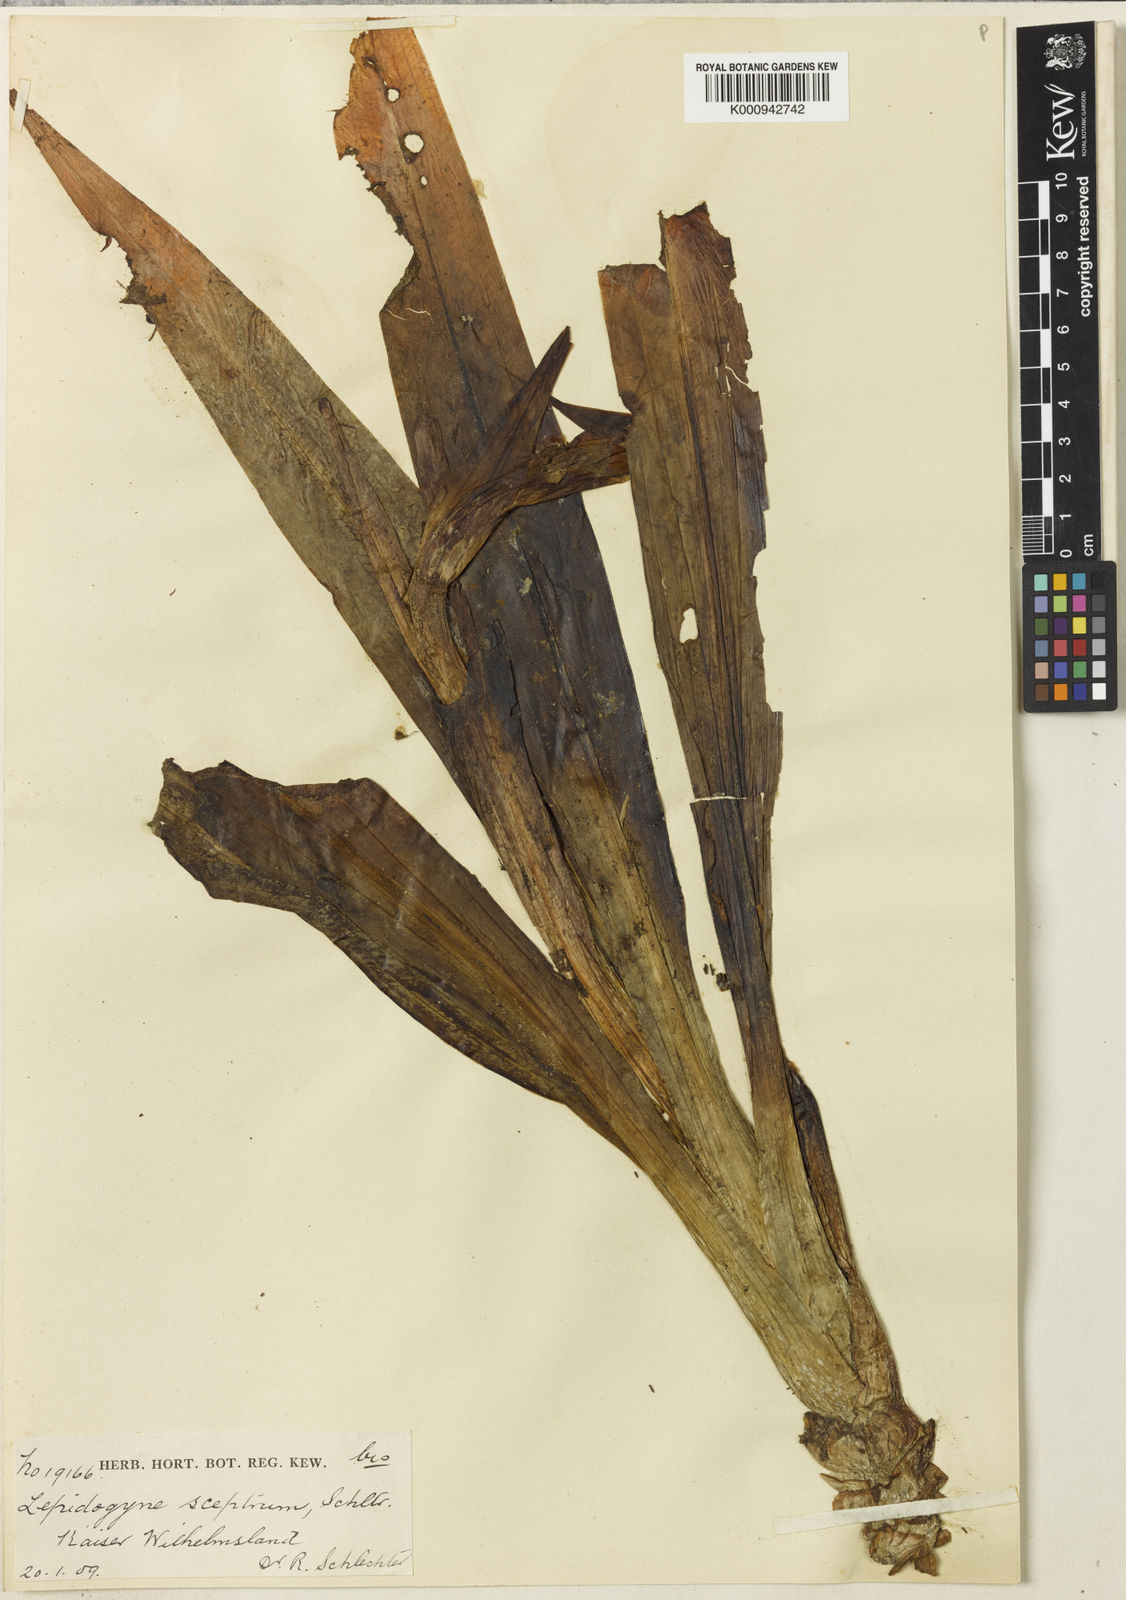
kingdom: Plantae
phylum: Tracheophyta
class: Liliopsida
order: Asparagales
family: Orchidaceae
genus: Lepidogyne
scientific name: Lepidogyne longifolia
